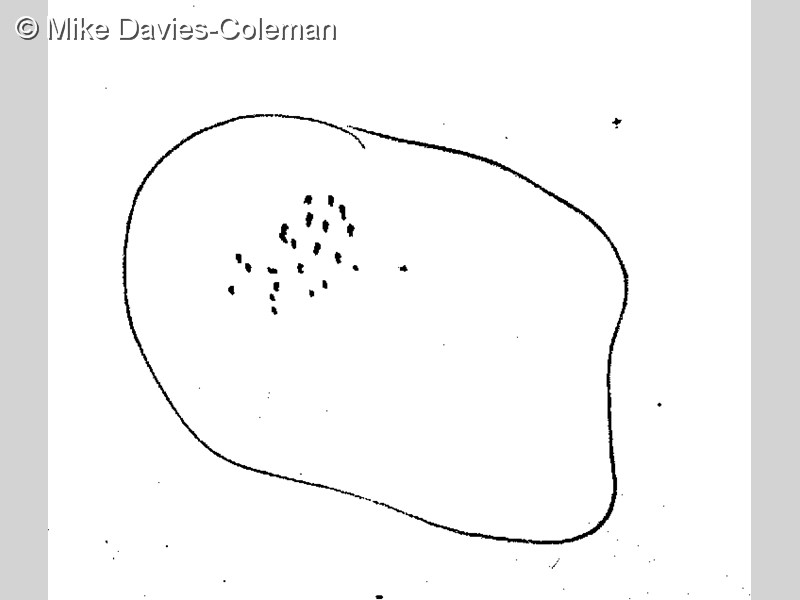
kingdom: Animalia
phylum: Chordata
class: Ascidiacea
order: Aplousobranchia
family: Pseudodistomidae
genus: Pseudodistoma
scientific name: Pseudodistoma
